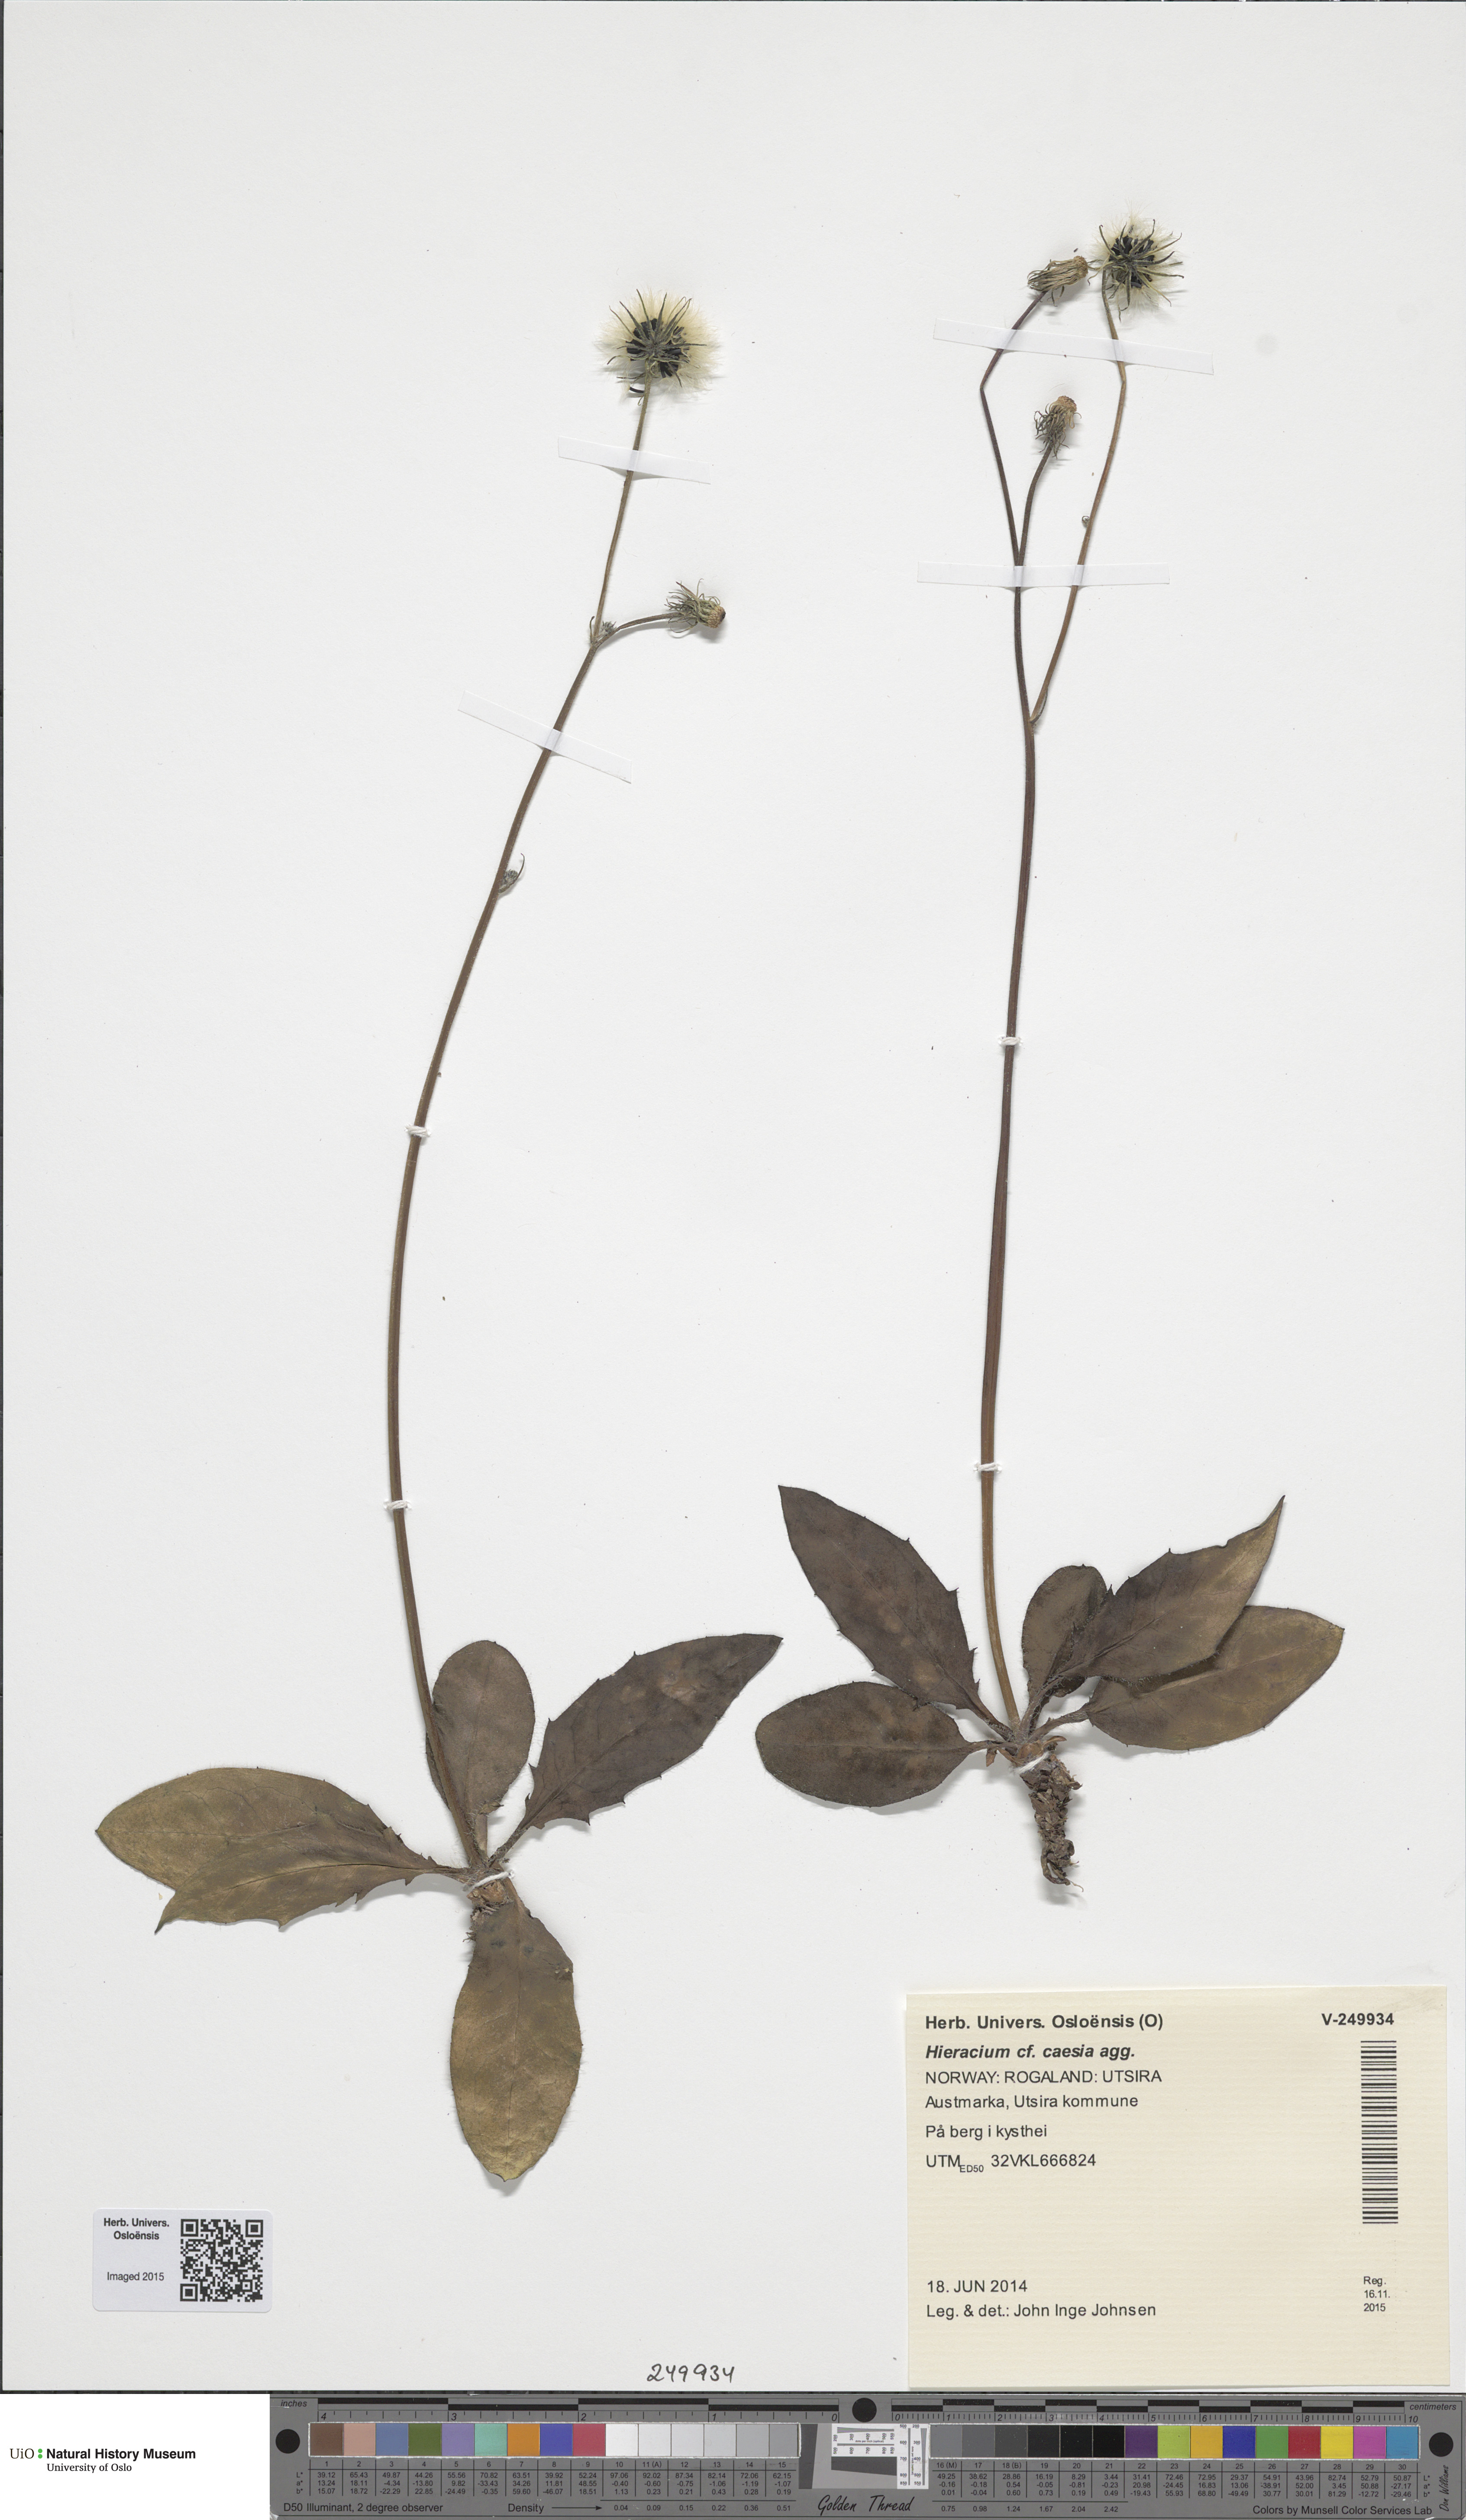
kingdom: Plantae
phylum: Tracheophyta
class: Magnoliopsida
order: Asterales
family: Asteraceae
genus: Hieracium
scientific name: Hieracium caesium
